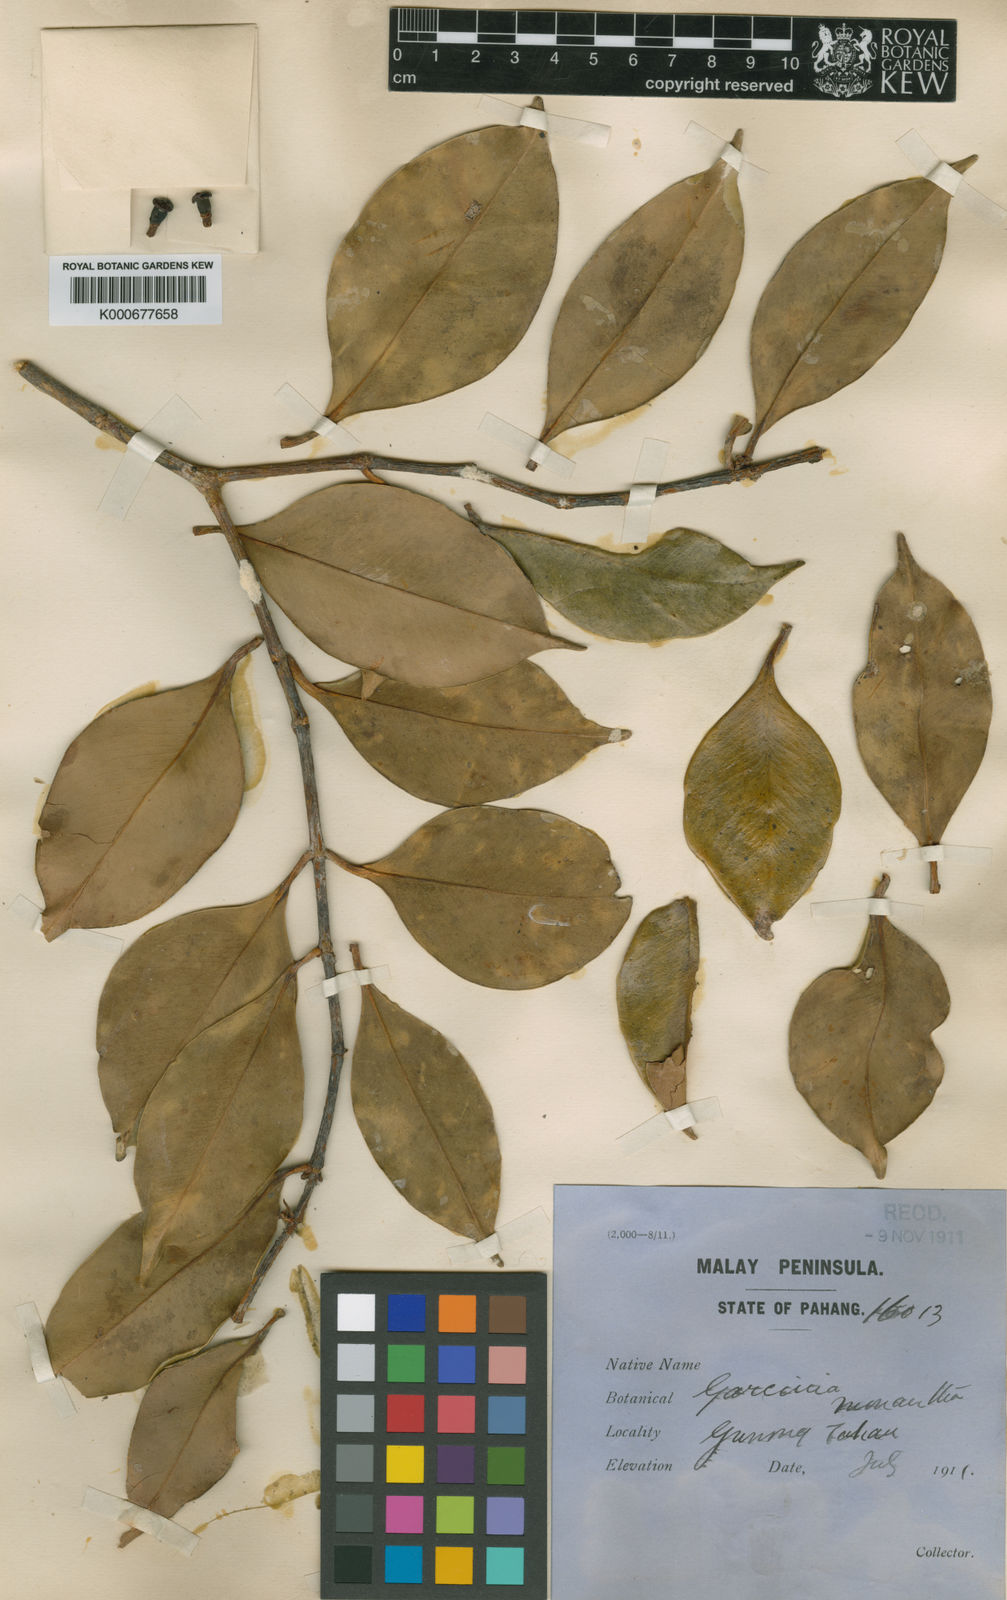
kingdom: Plantae
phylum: Tracheophyta
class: Magnoliopsida
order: Malpighiales
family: Clusiaceae
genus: Garcinia
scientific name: Garcinia monantha
